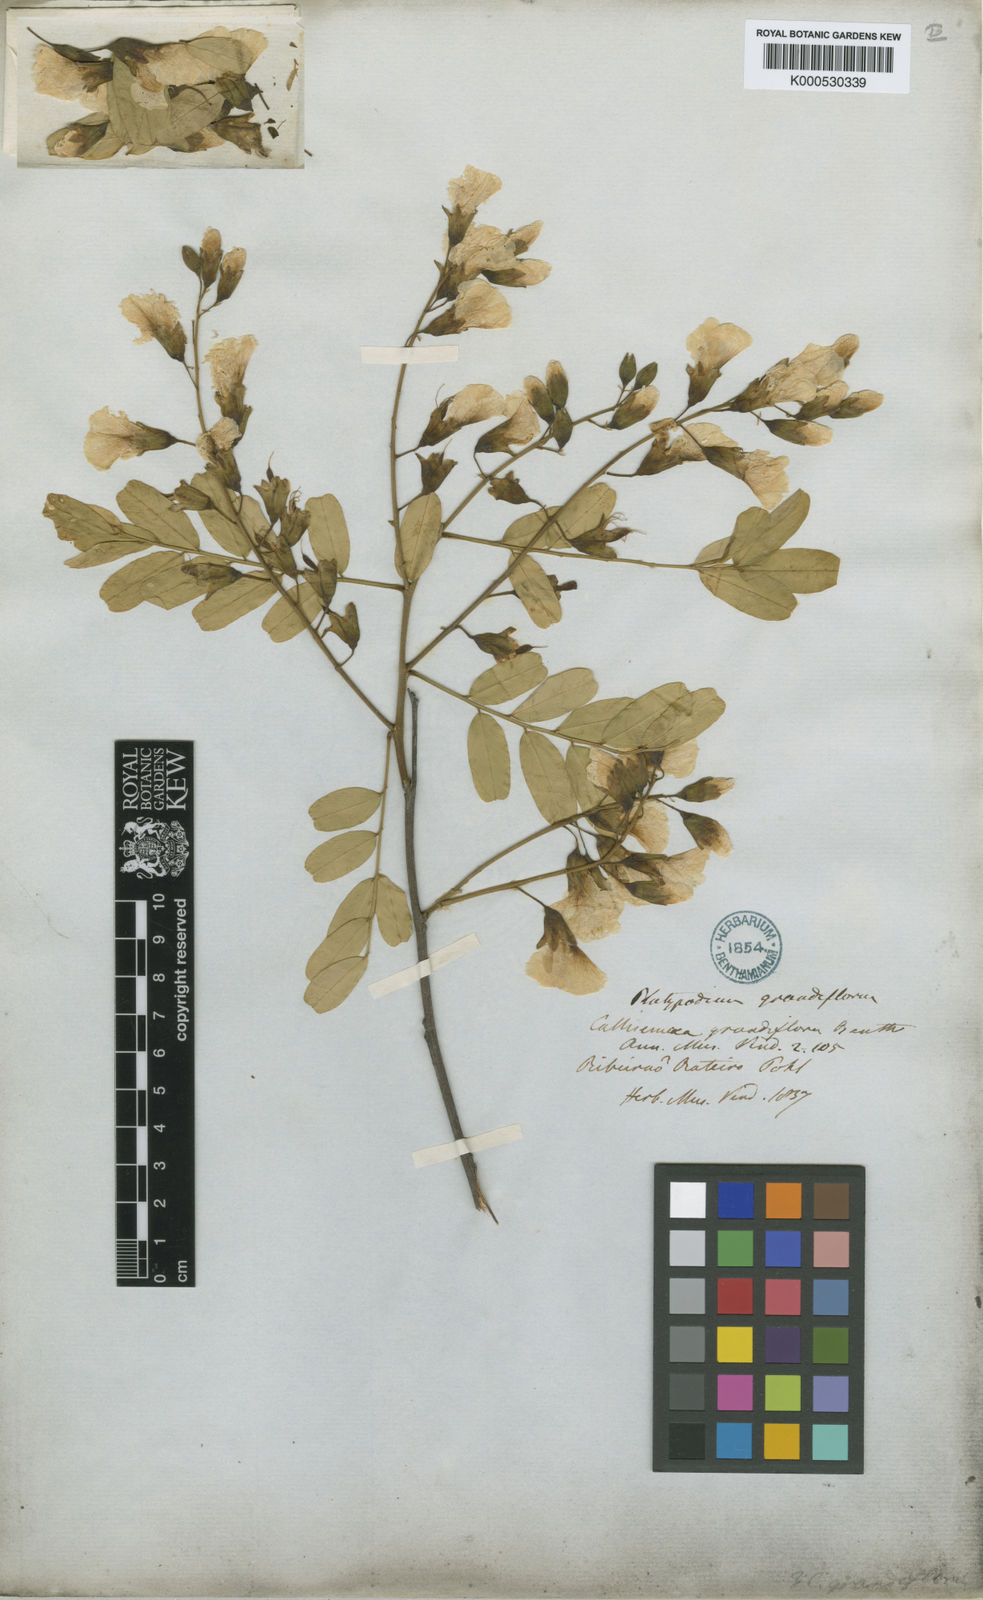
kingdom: Plantae
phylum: Tracheophyta
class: Magnoliopsida
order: Fabales
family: Fabaceae
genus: Platypodium
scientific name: Platypodium elegans
